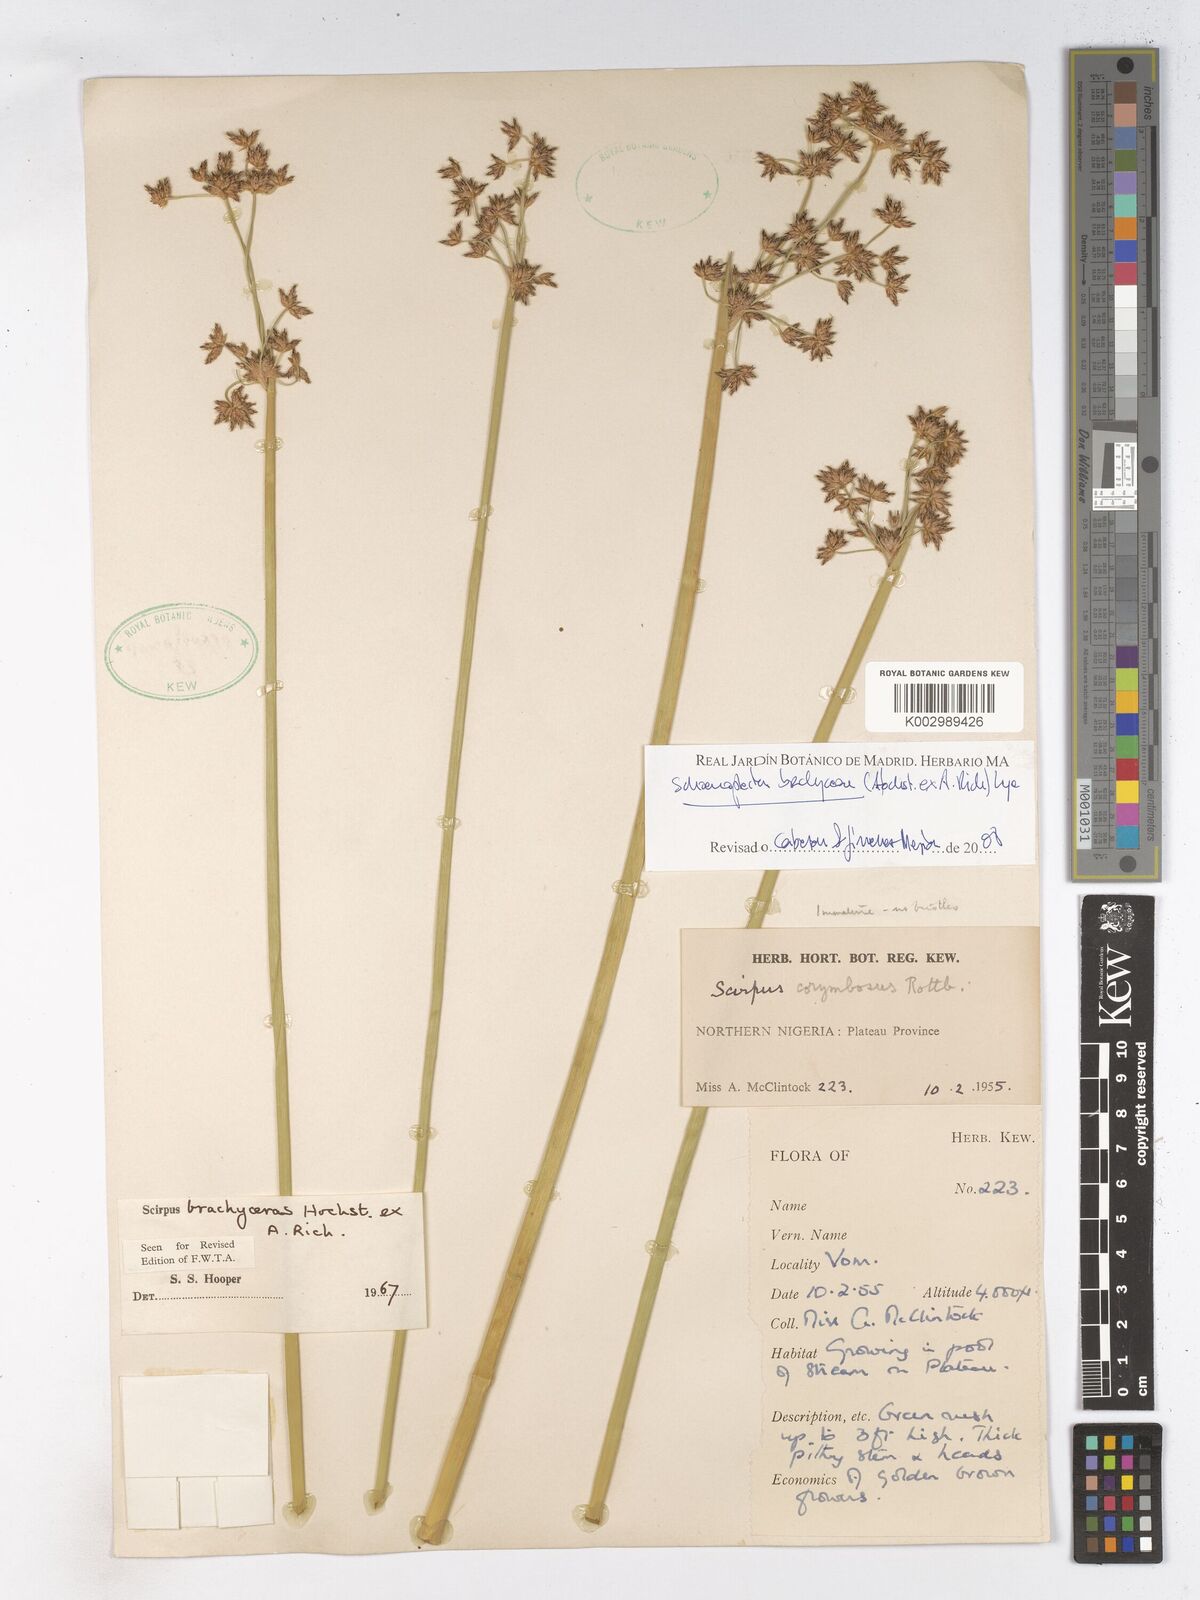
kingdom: Plantae
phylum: Tracheophyta
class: Liliopsida
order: Poales
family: Cyperaceae
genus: Schoenoplectiella
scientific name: Schoenoplectiella corymbosa
